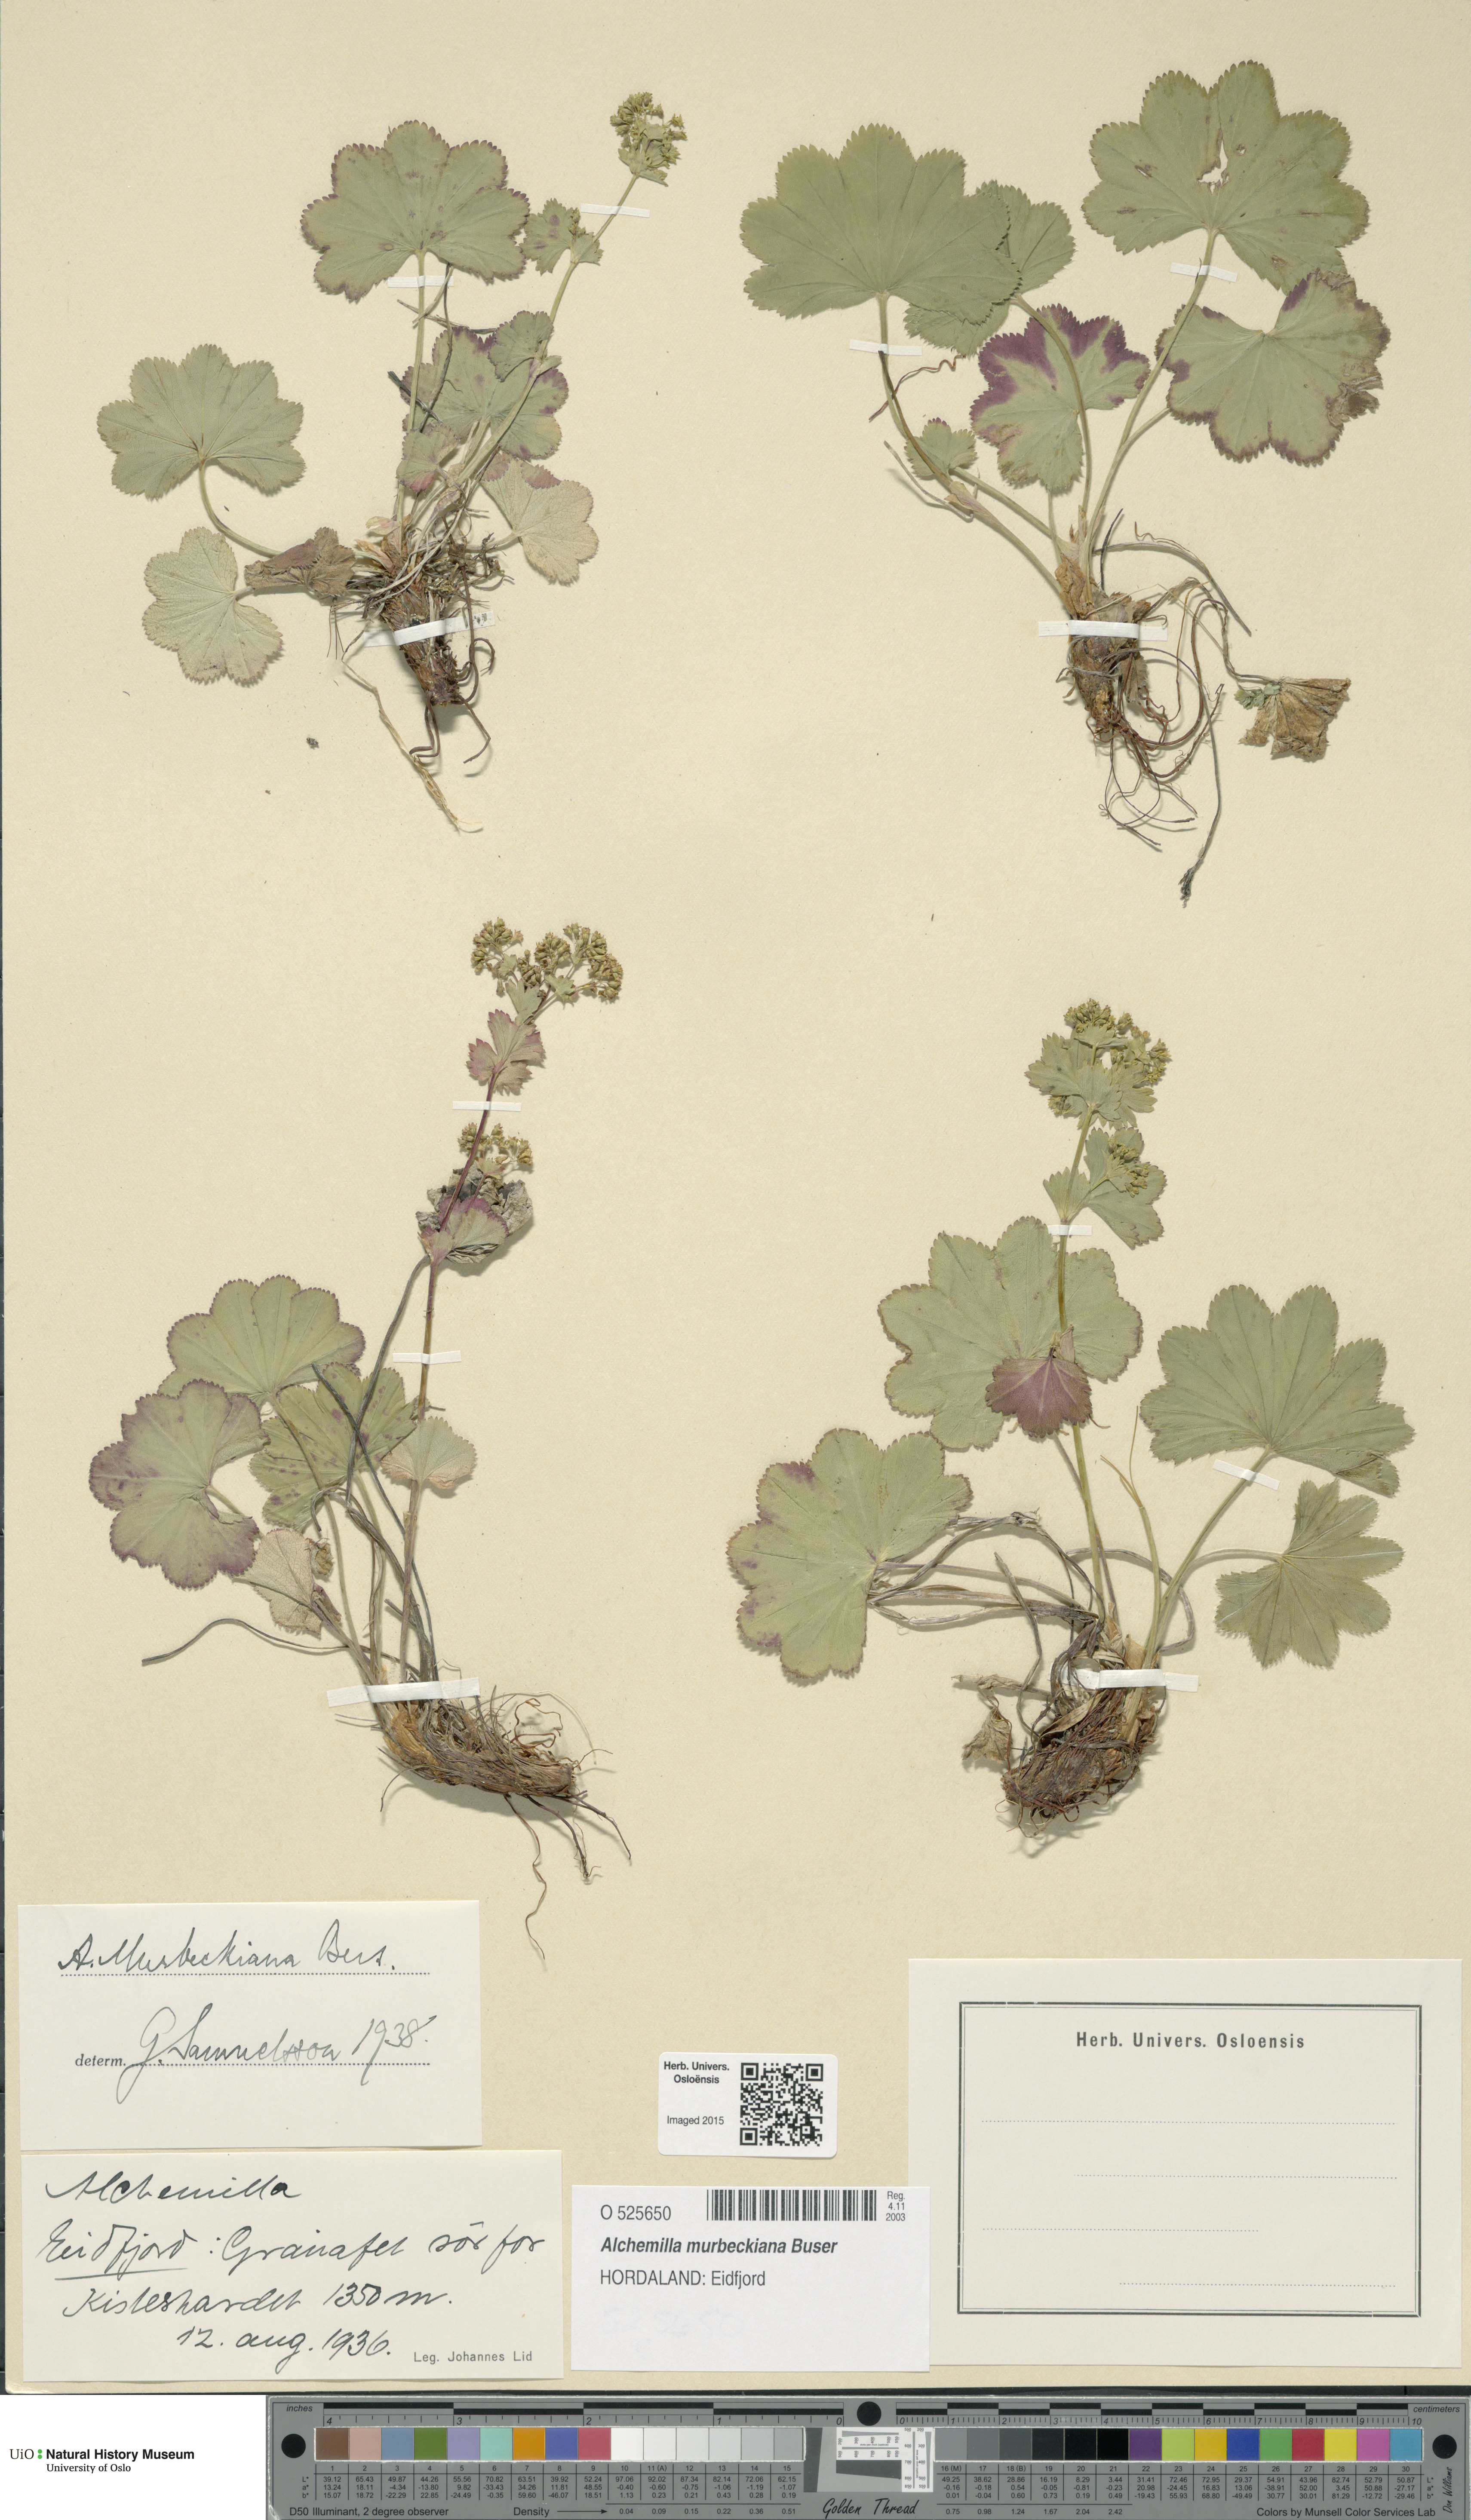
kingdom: Plantae
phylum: Tracheophyta
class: Magnoliopsida
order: Rosales
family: Rosaceae
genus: Alchemilla
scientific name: Alchemilla murbeckiana
